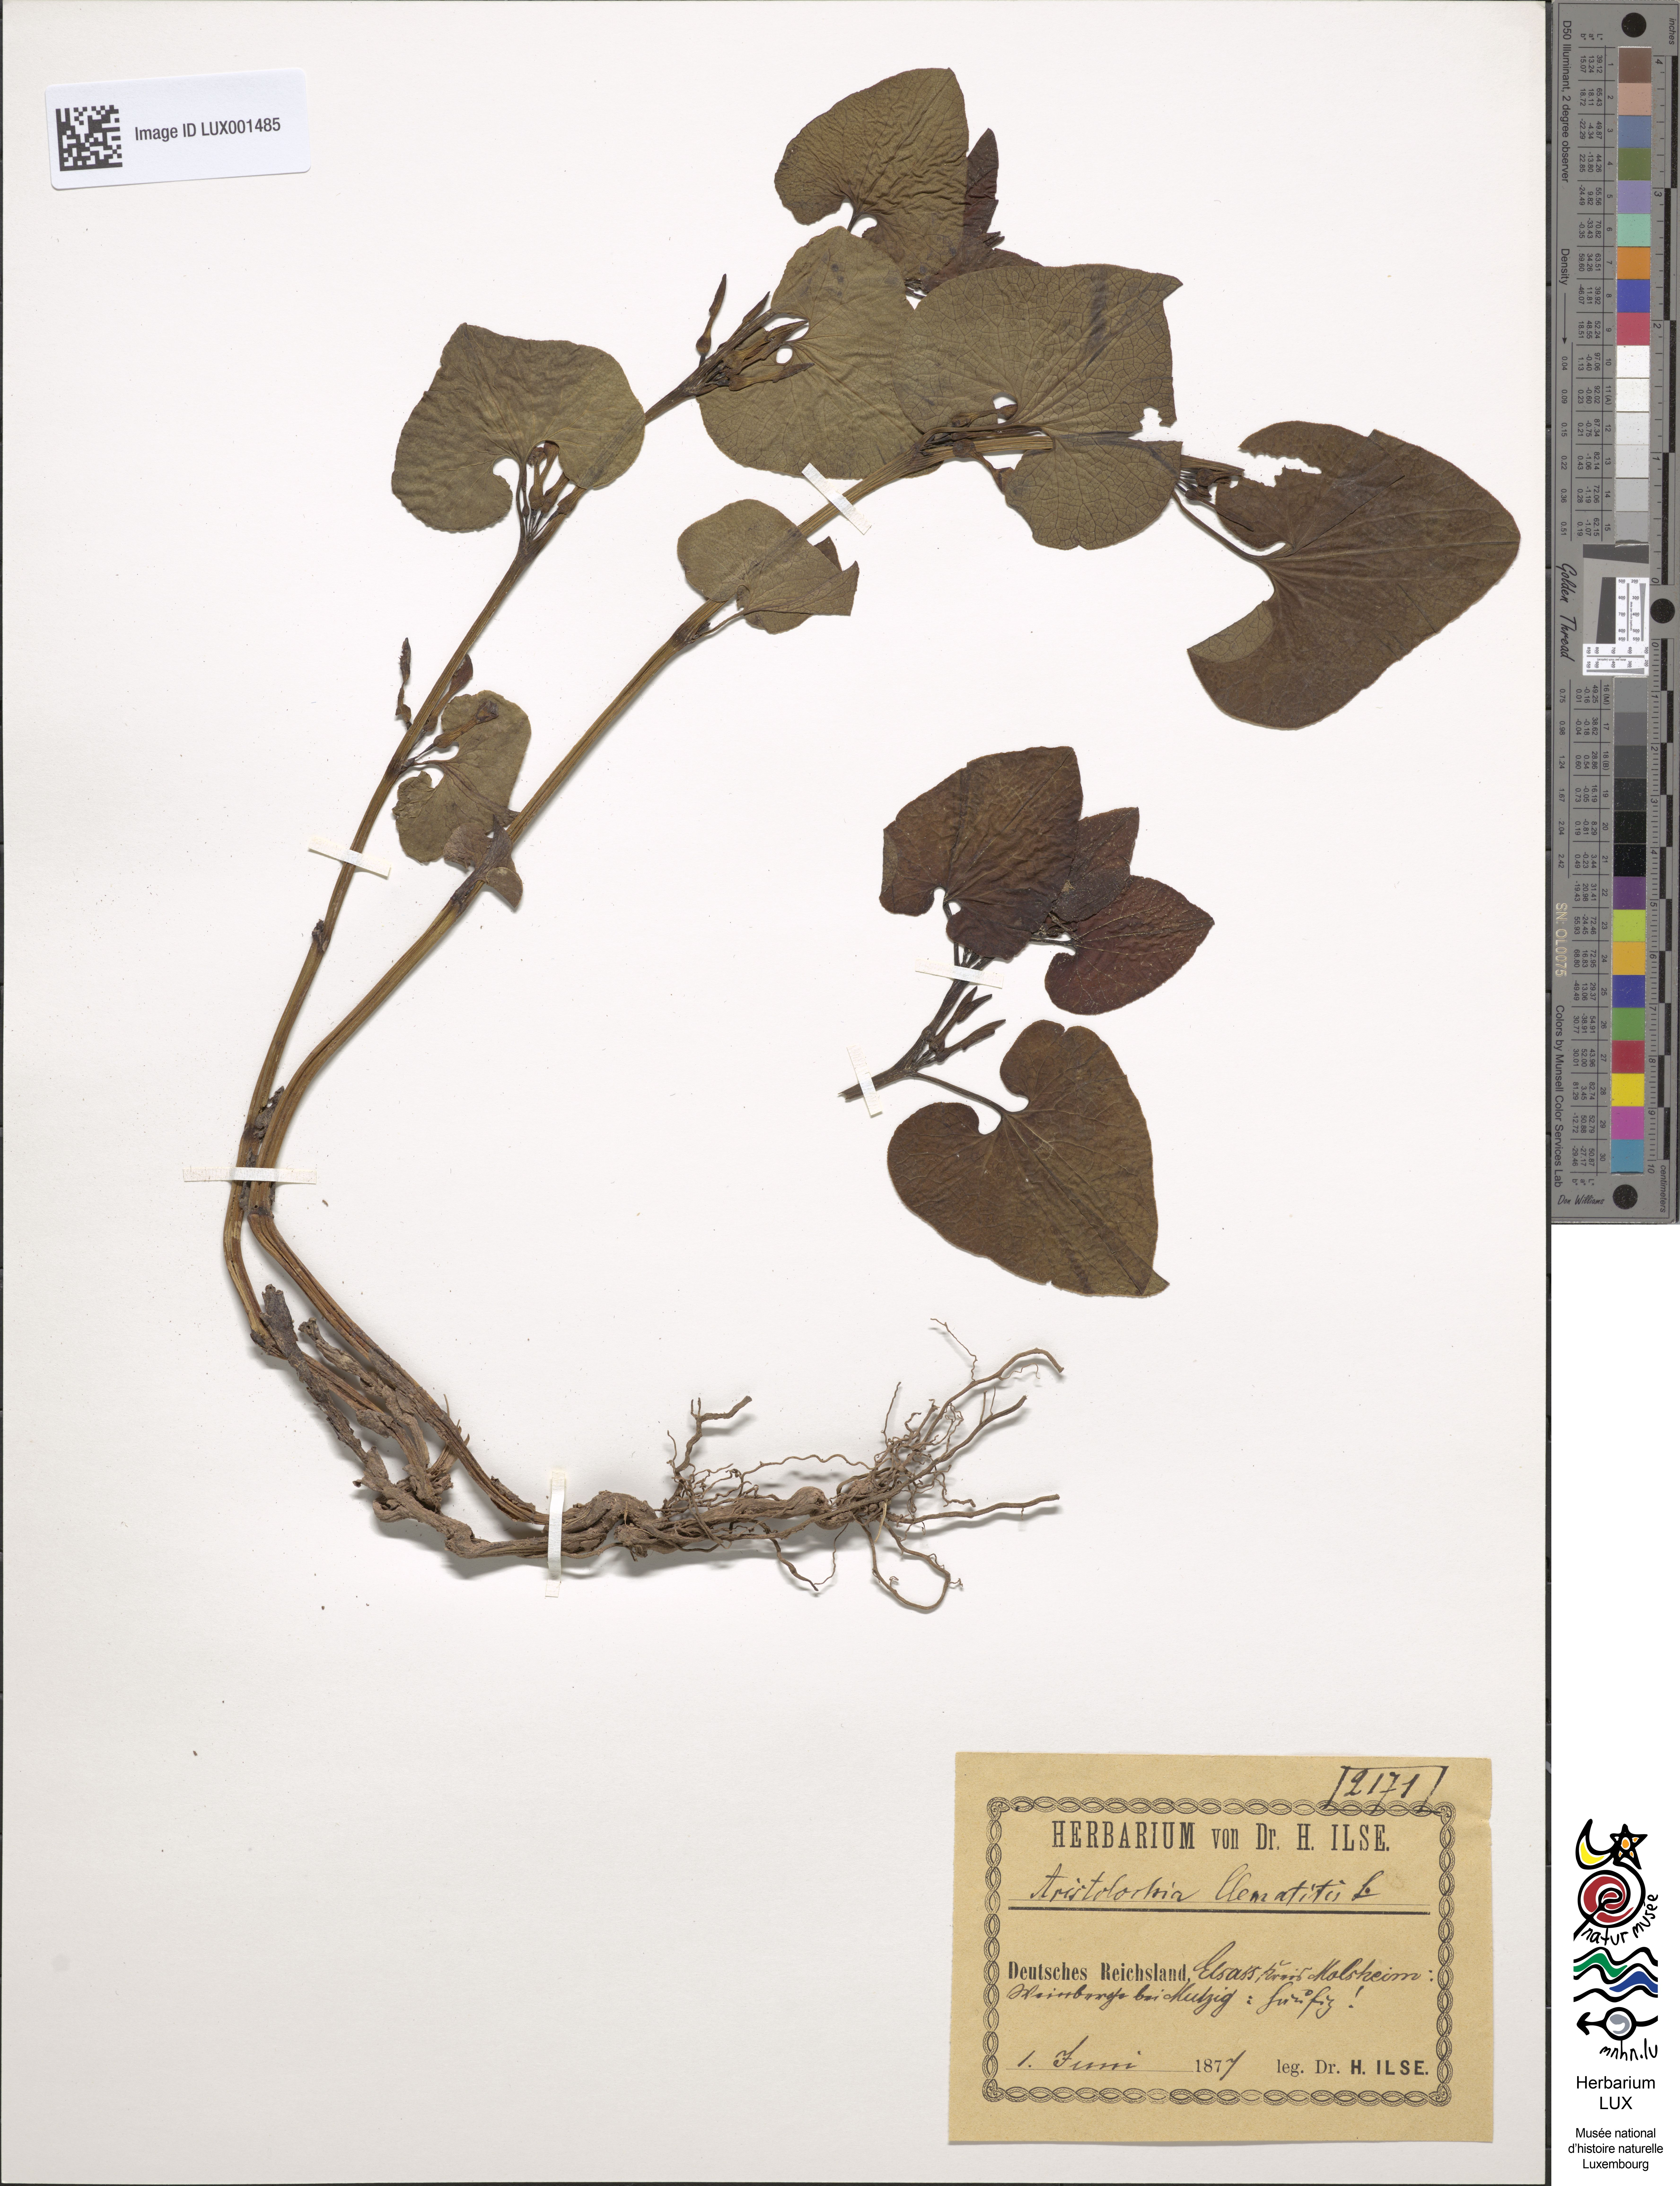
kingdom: Plantae
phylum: Tracheophyta
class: Magnoliopsida
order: Piperales
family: Aristolochiaceae
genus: Aristolochia
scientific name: Aristolochia clematitis
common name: Birthwort
